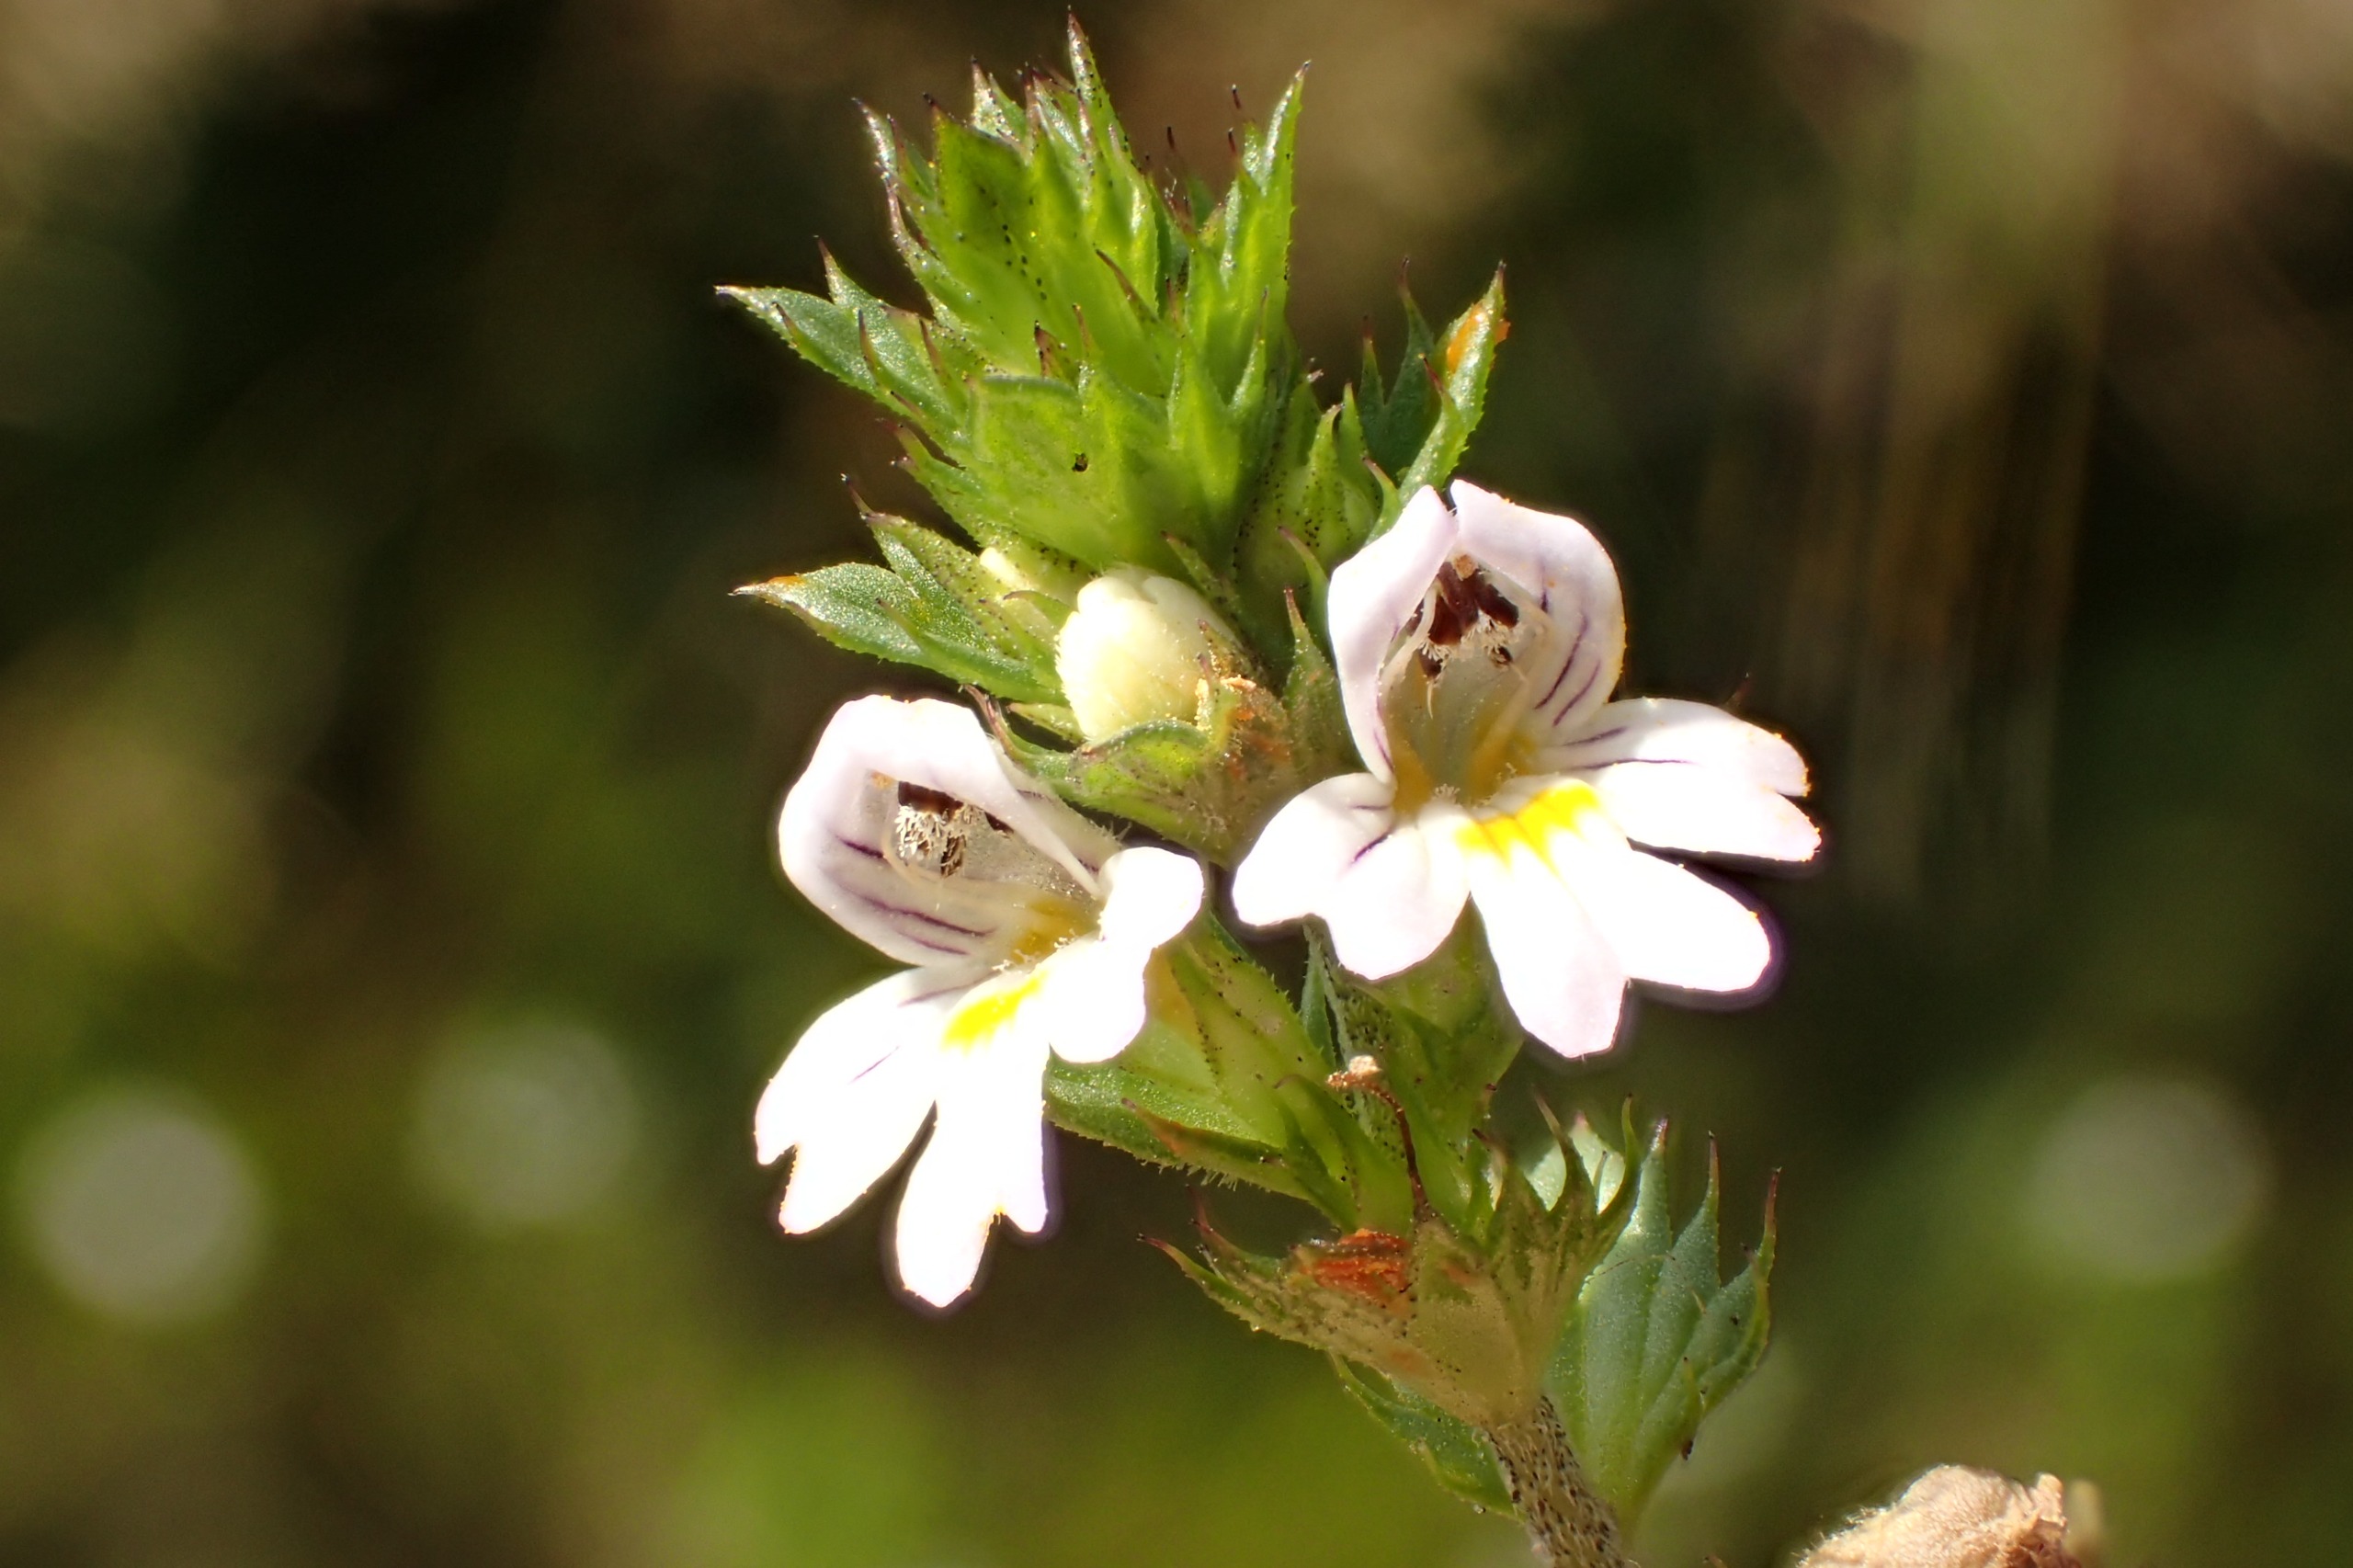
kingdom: Plantae
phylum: Tracheophyta
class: Magnoliopsida
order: Lamiales
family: Orobanchaceae
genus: Euphrasia
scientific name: Euphrasia stricta
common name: Spids øjentrøst
